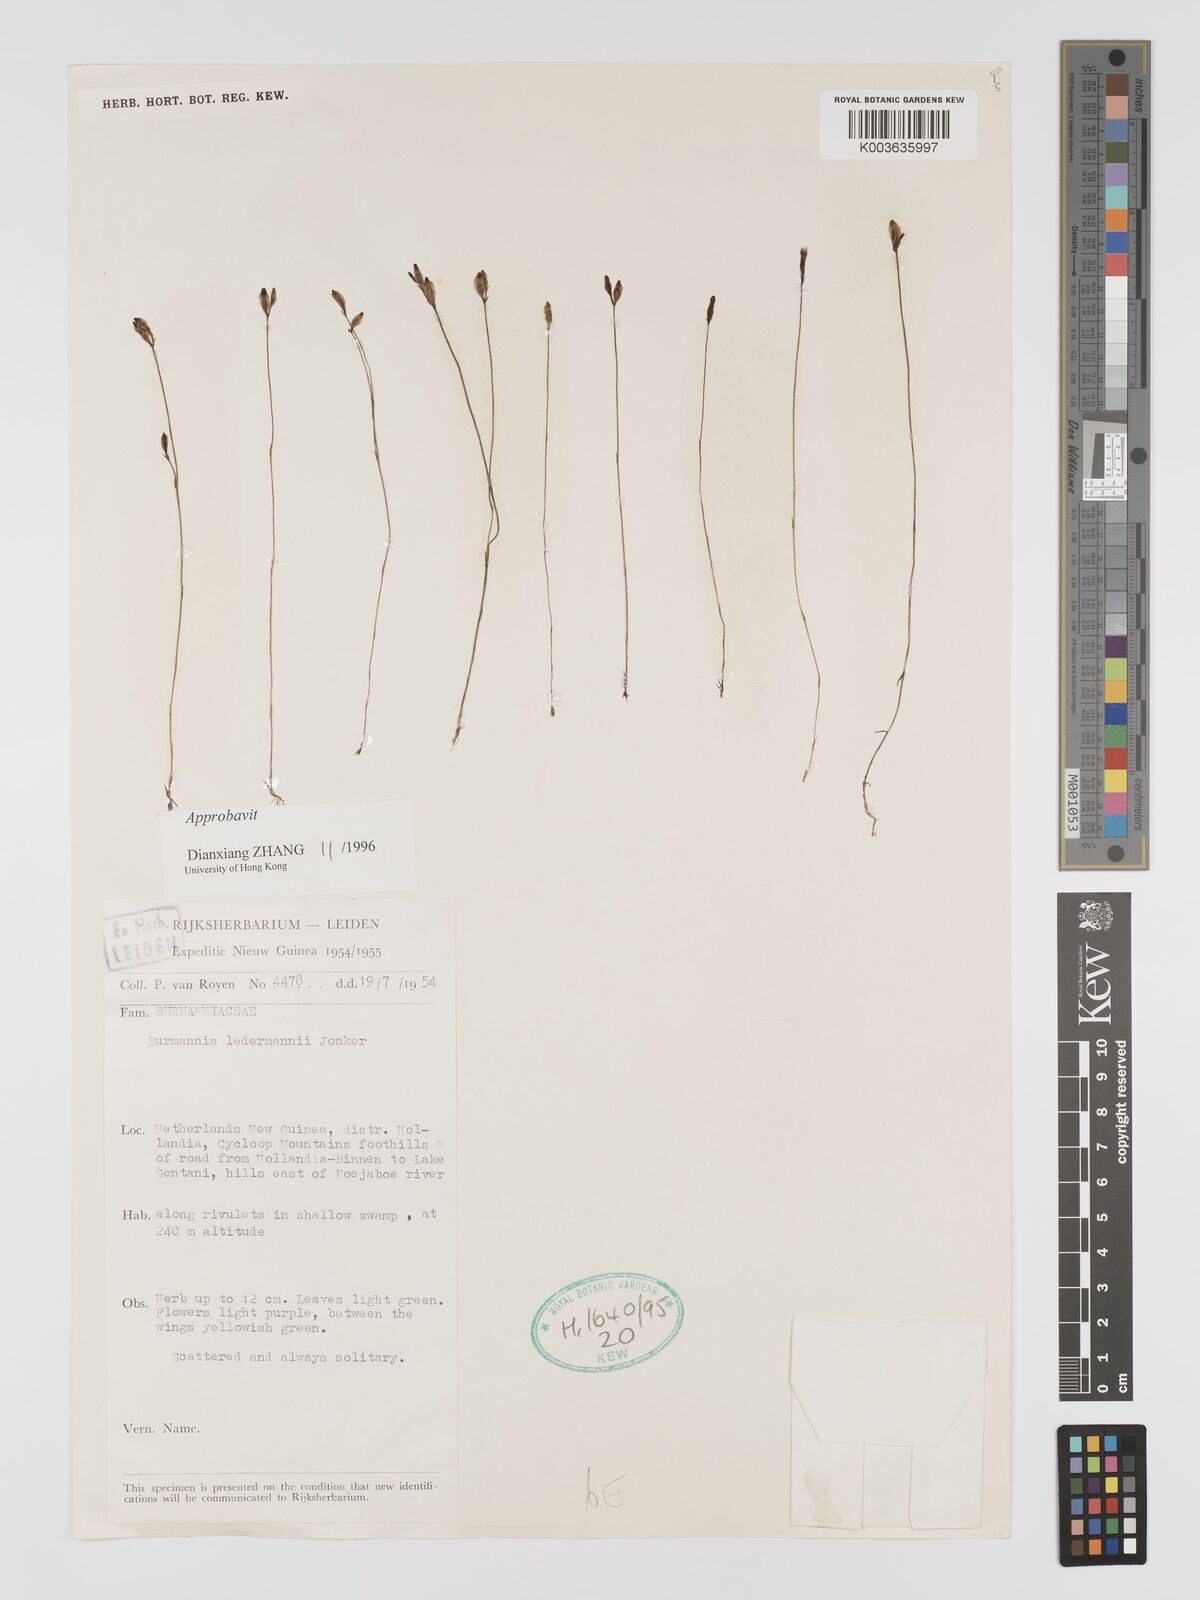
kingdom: Plantae
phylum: Tracheophyta
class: Liliopsida
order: Dioscoreales
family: Burmanniaceae
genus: Burmannia
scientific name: Burmannia ledermannii
